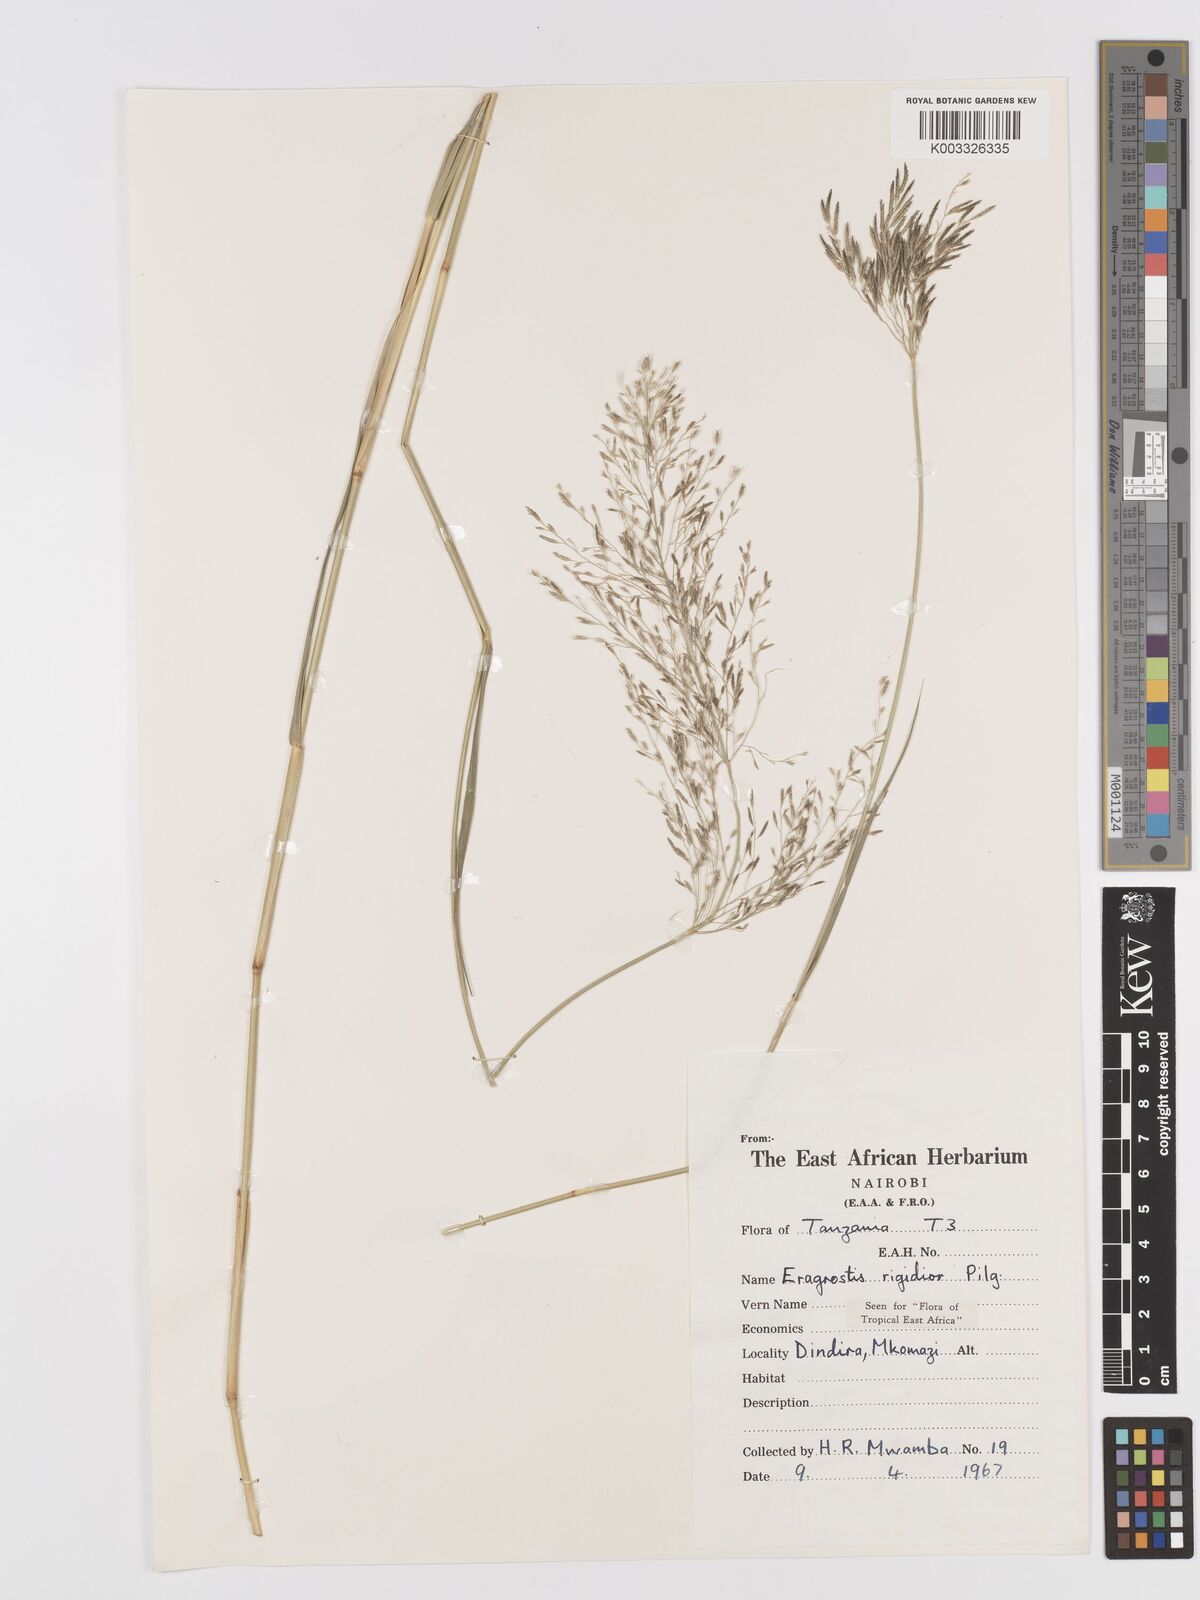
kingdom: Plantae
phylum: Tracheophyta
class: Liliopsida
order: Poales
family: Poaceae
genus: Eragrostis
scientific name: Eragrostis cylindriflora
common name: Cylinderflower lovegrass
